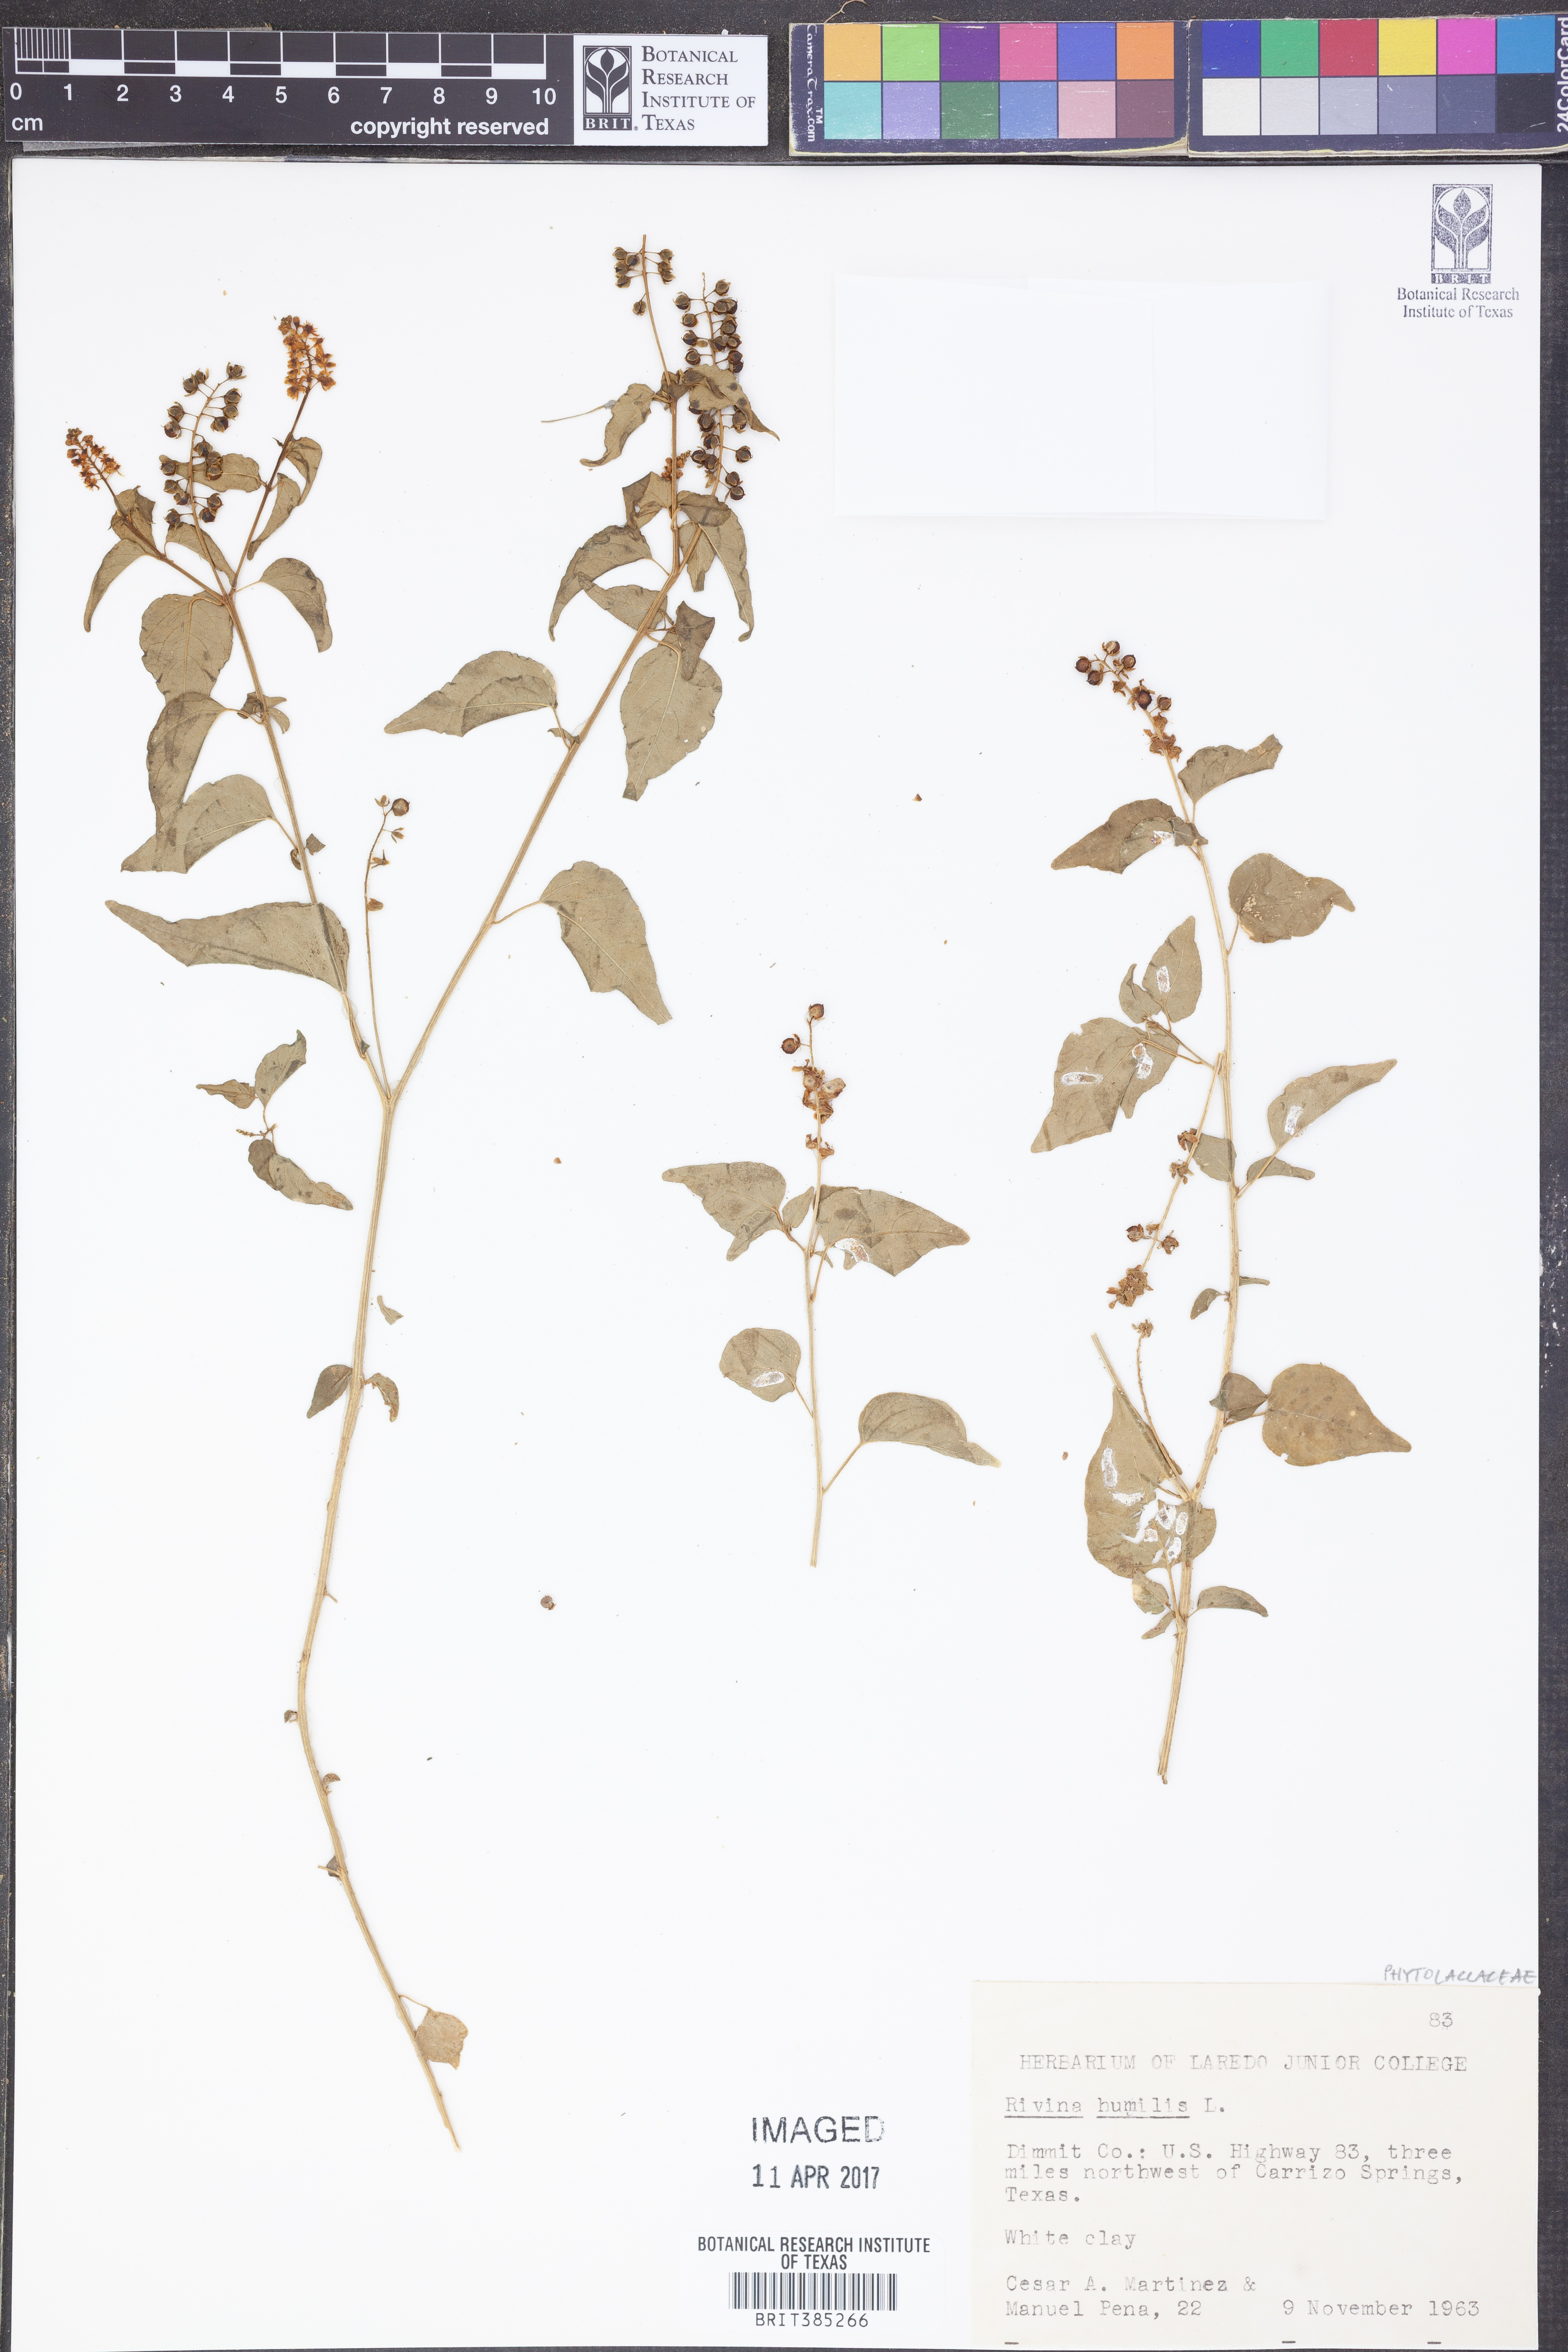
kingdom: Plantae
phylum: Tracheophyta
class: Magnoliopsida
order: Caryophyllales
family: Phytolaccaceae
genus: Rivina
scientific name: Rivina humilis
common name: Rougeplant
